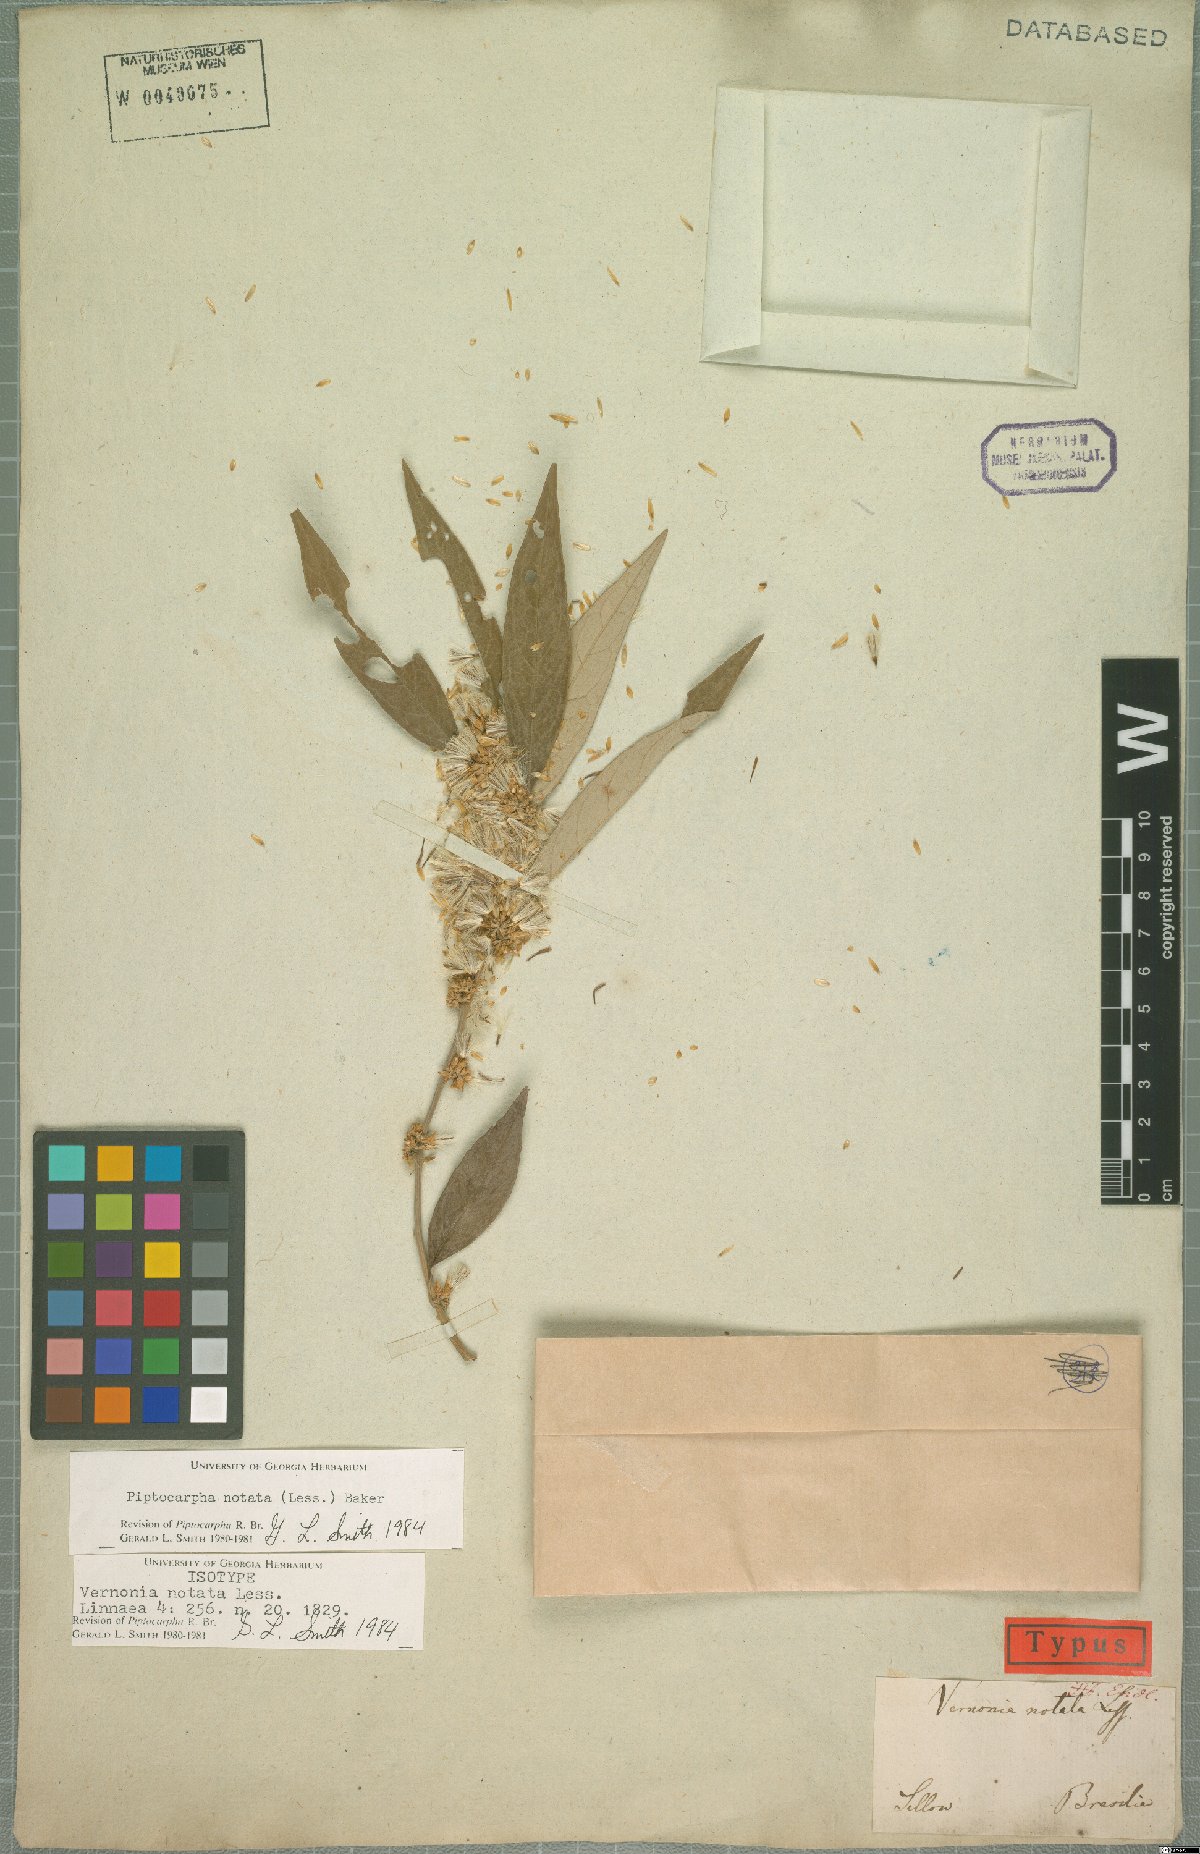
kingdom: Plantae
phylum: Tracheophyta
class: Magnoliopsida
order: Asterales
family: Asteraceae
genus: Piptocarpha
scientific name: Piptocarpha notata
